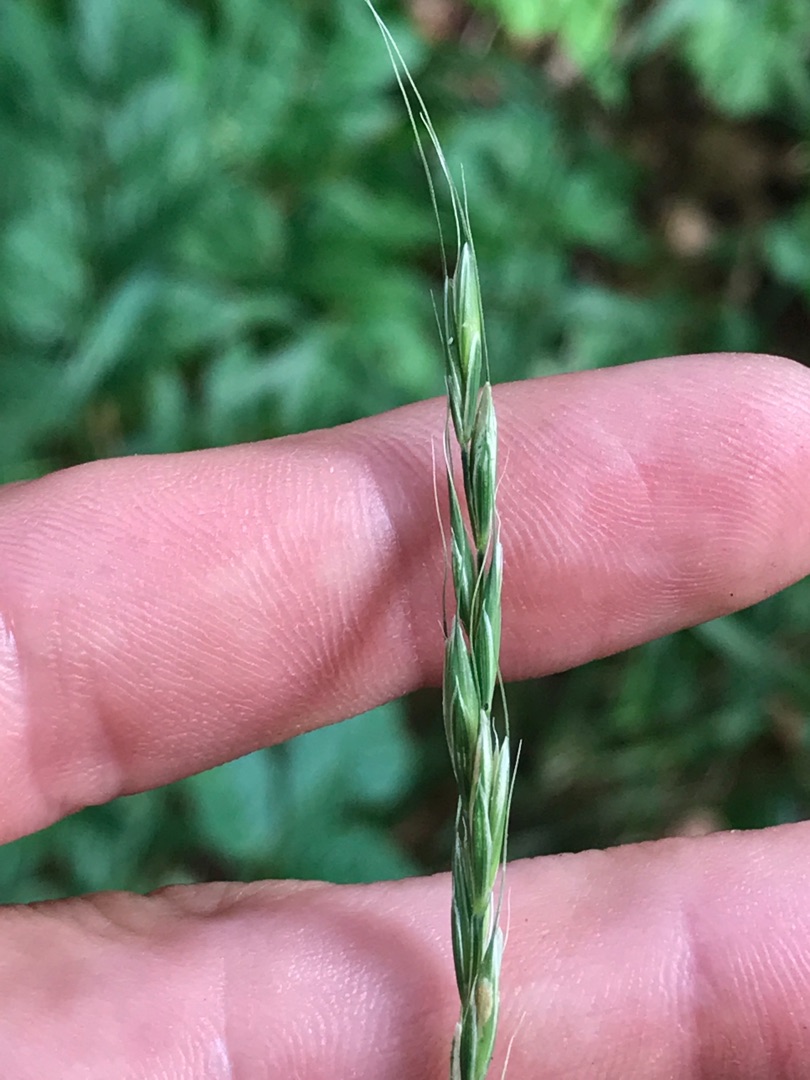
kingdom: Plantae
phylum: Tracheophyta
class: Liliopsida
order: Poales
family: Poaceae
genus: Elymus
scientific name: Elymus caninus
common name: Hundekvik
